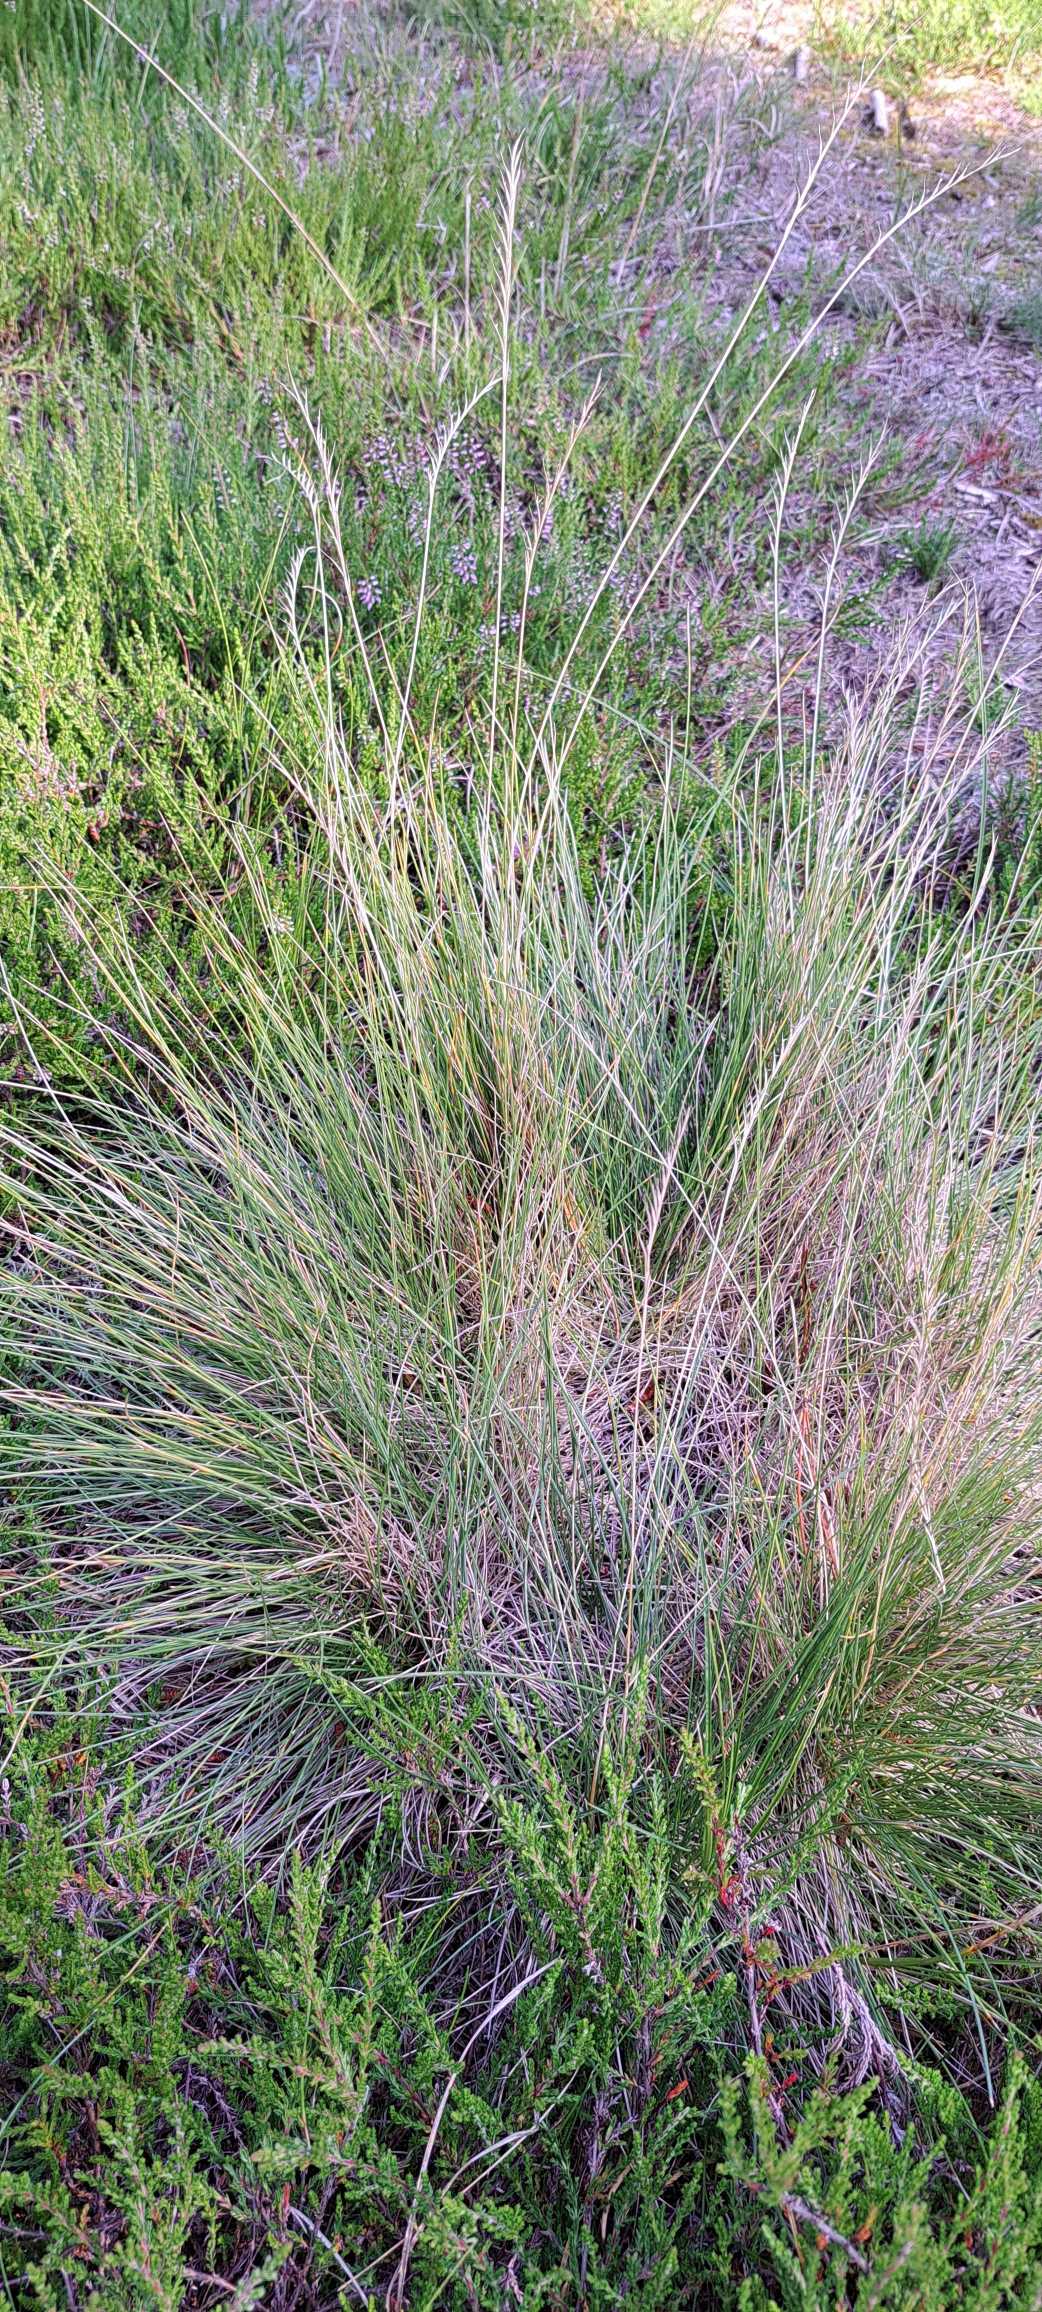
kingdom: Plantae
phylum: Tracheophyta
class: Liliopsida
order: Poales
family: Poaceae
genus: Nardus
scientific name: Nardus stricta
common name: Katteskæg
